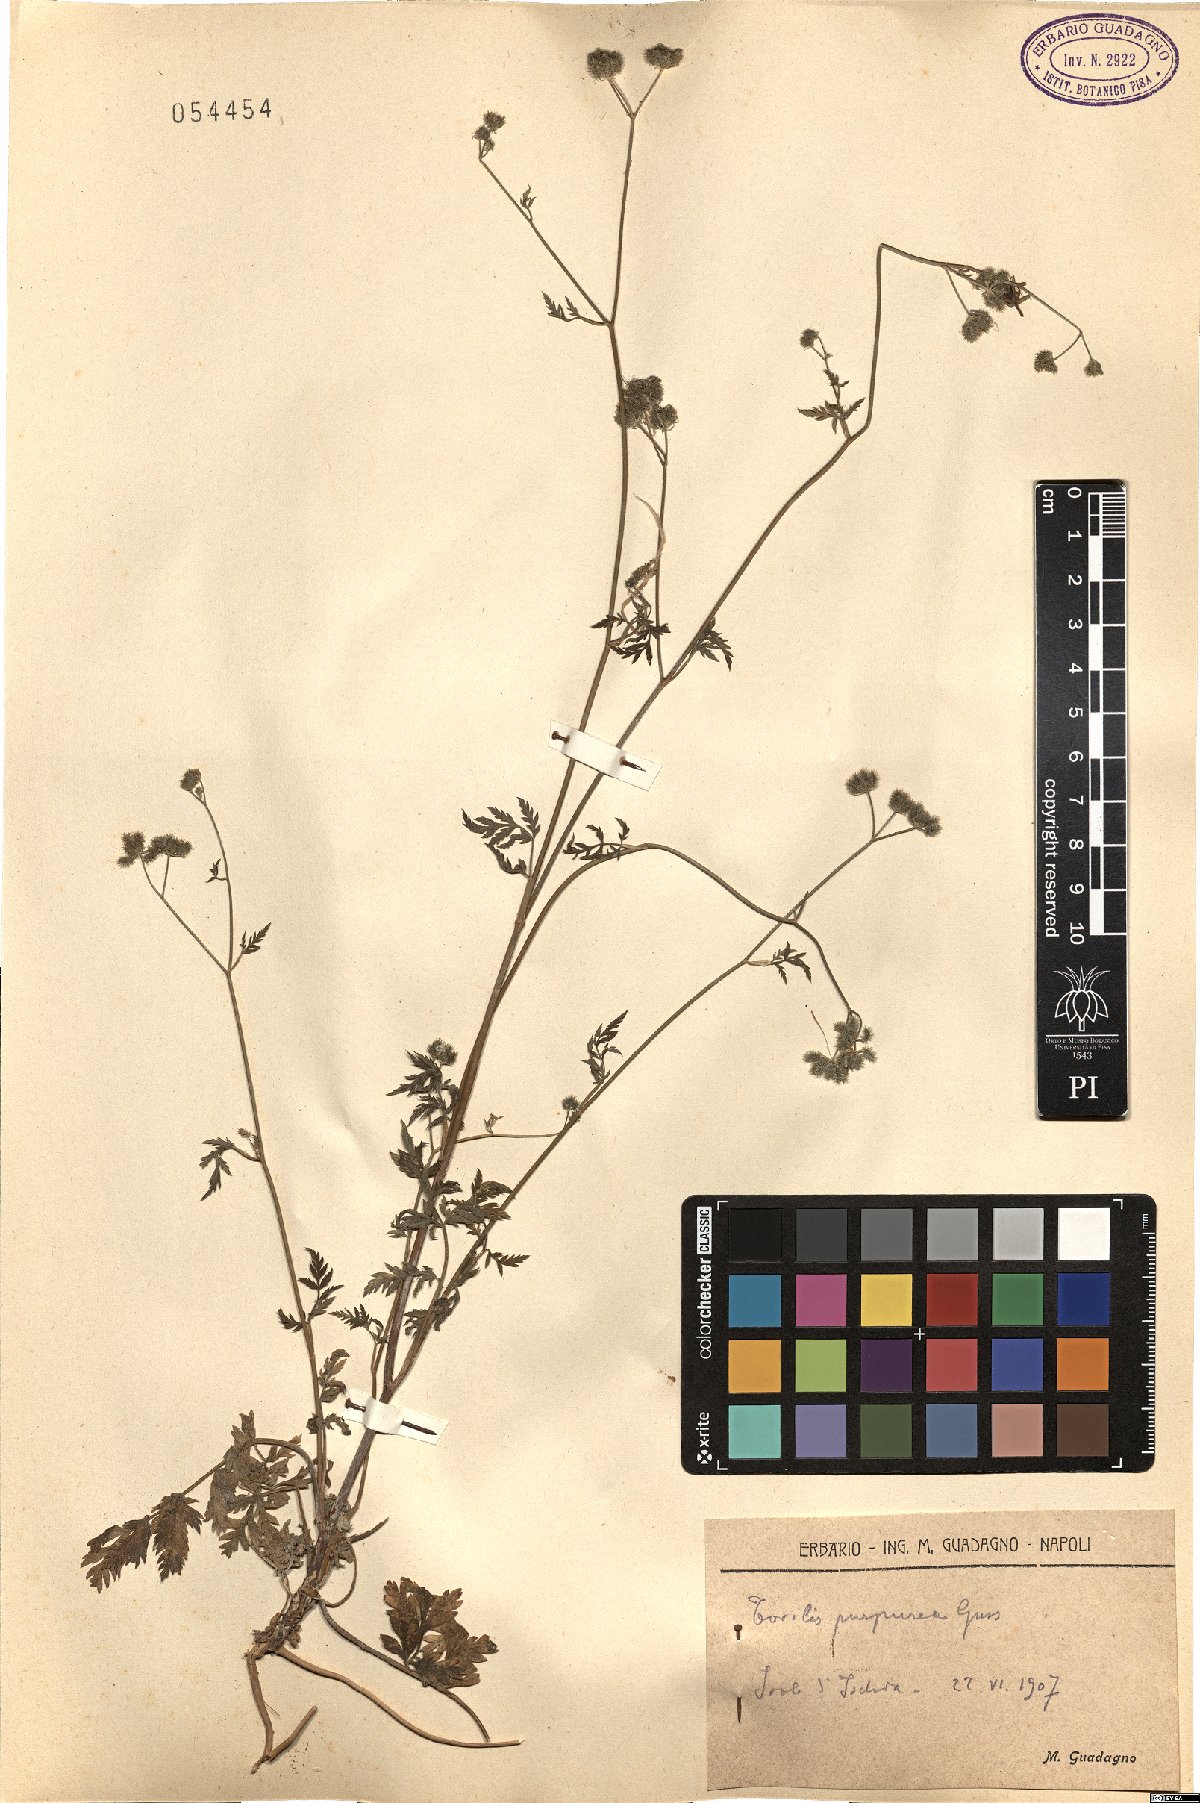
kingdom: Plantae
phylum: Tracheophyta
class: Magnoliopsida
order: Apiales
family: Apiaceae
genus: Torilis
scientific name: Torilis africana
